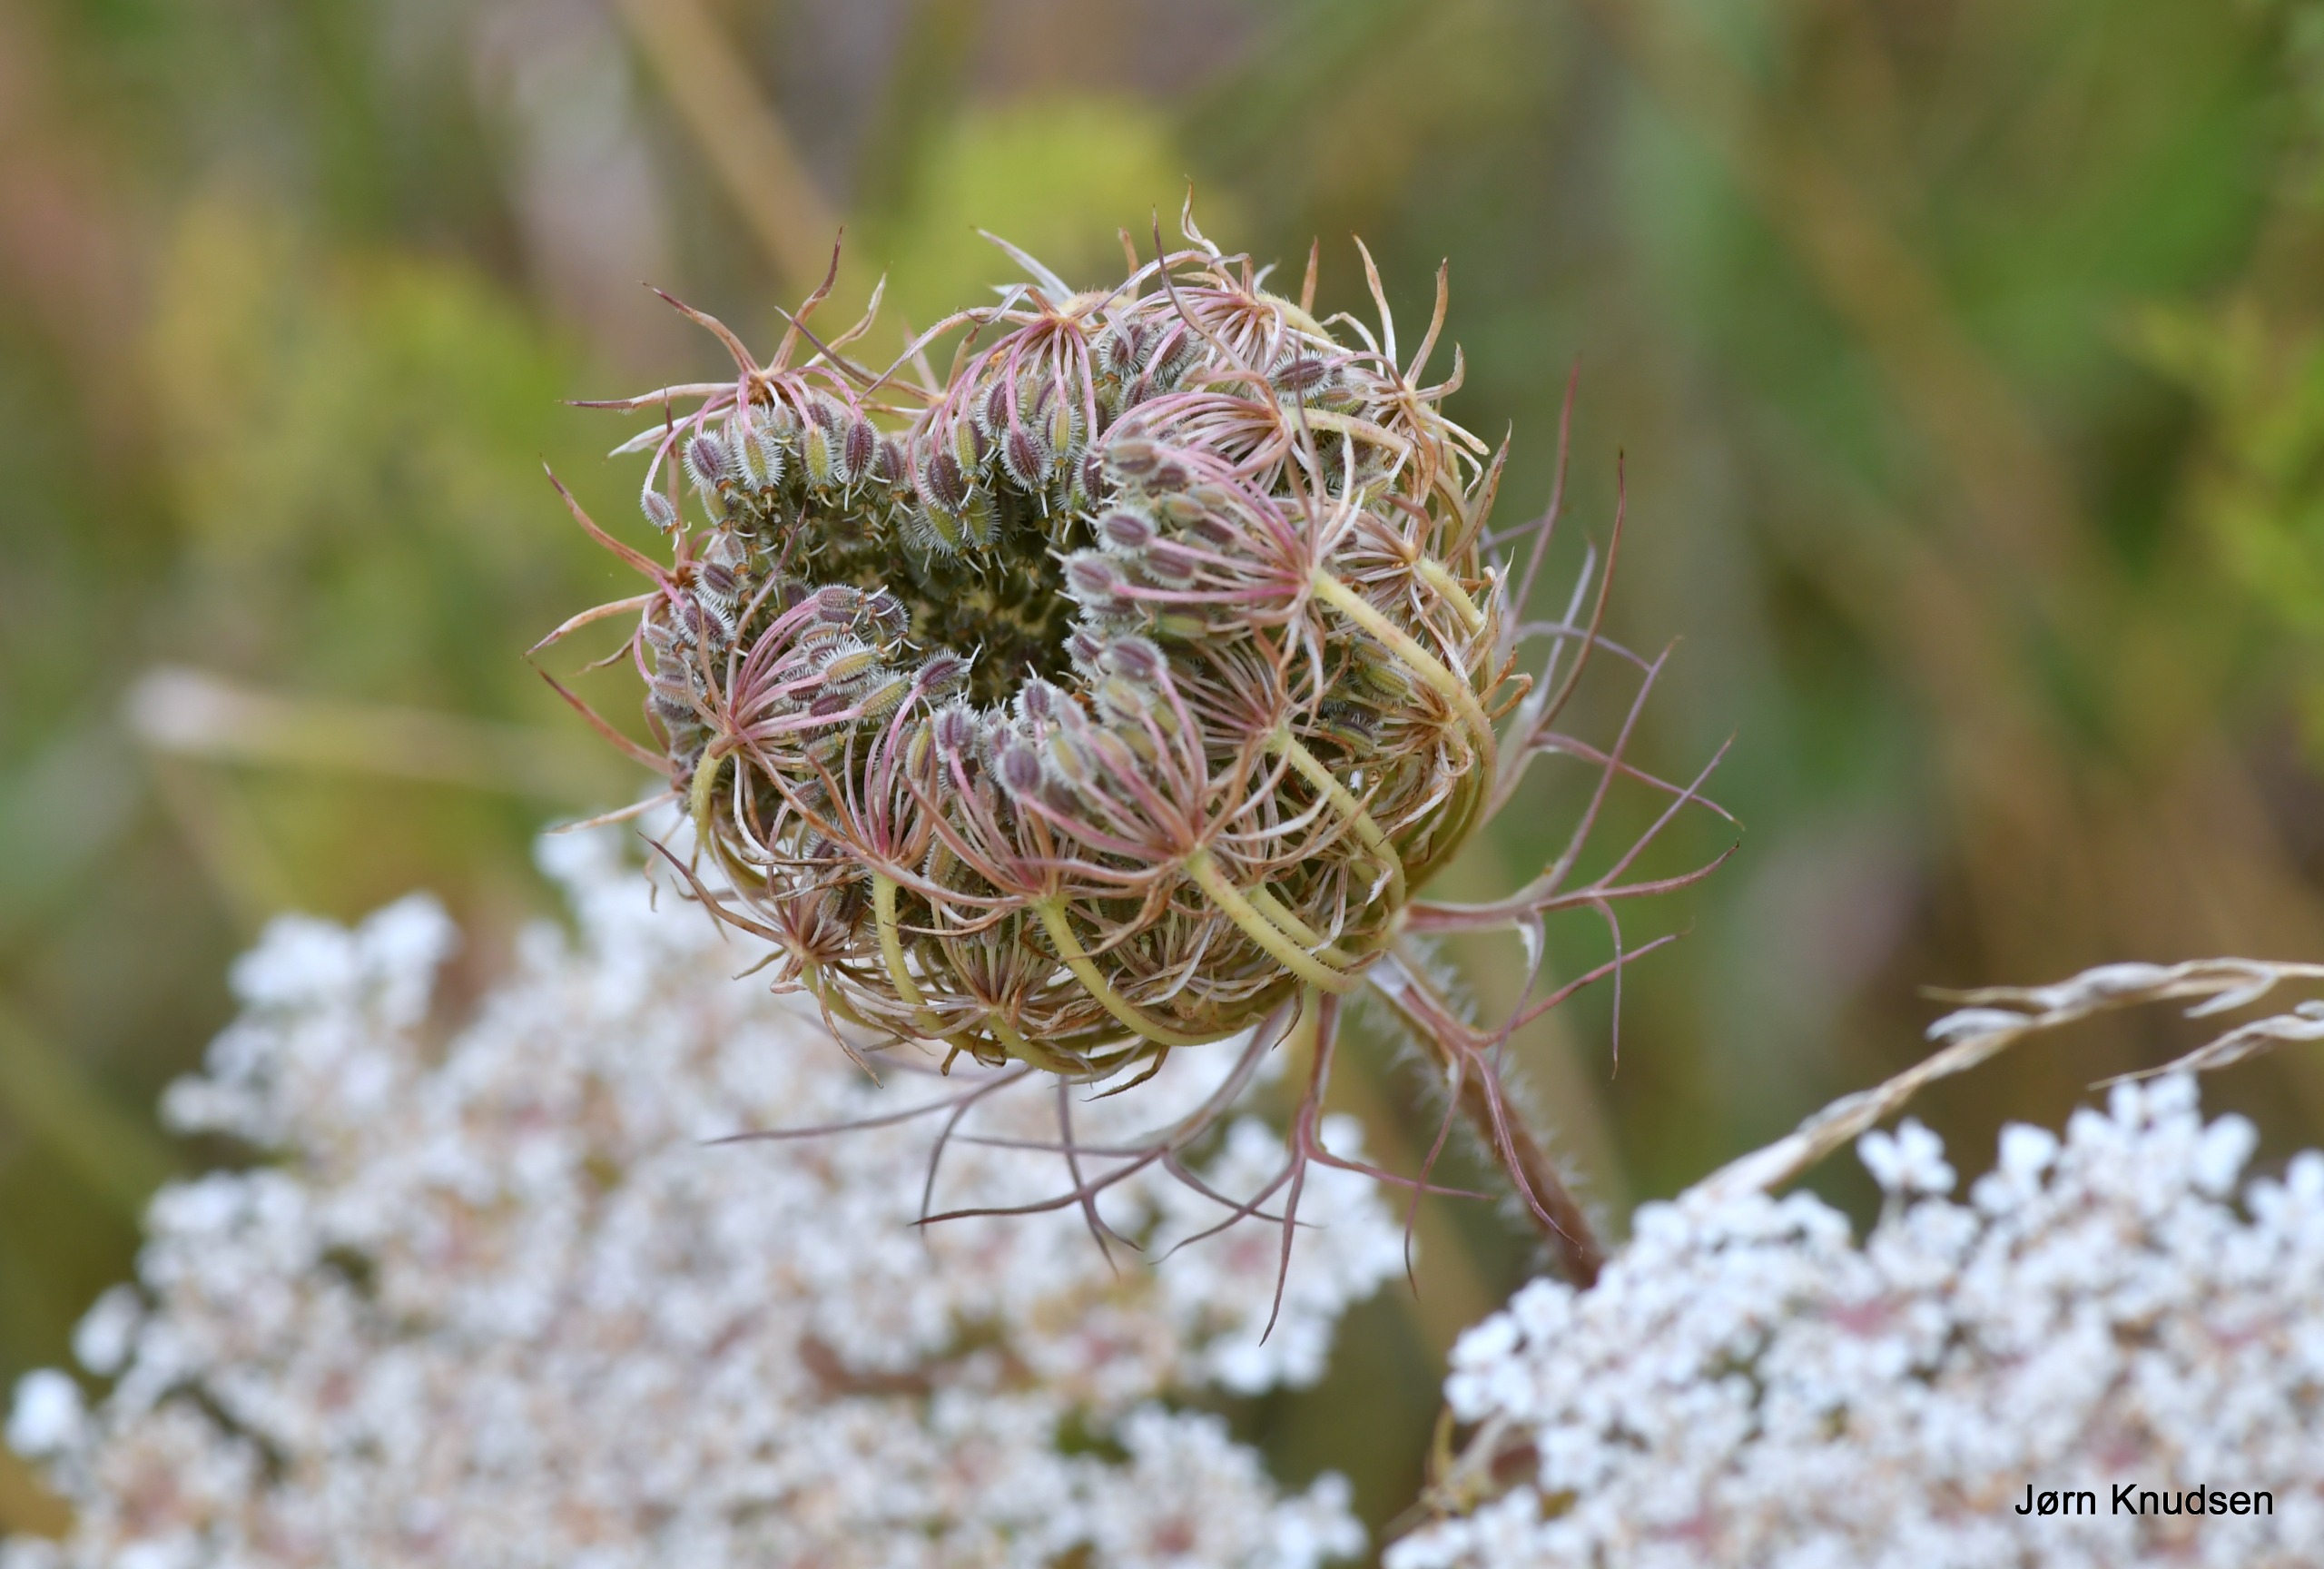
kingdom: Plantae
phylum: Tracheophyta
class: Magnoliopsida
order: Apiales
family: Apiaceae
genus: Daucus
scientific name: Daucus carota
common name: Vild gulerod
